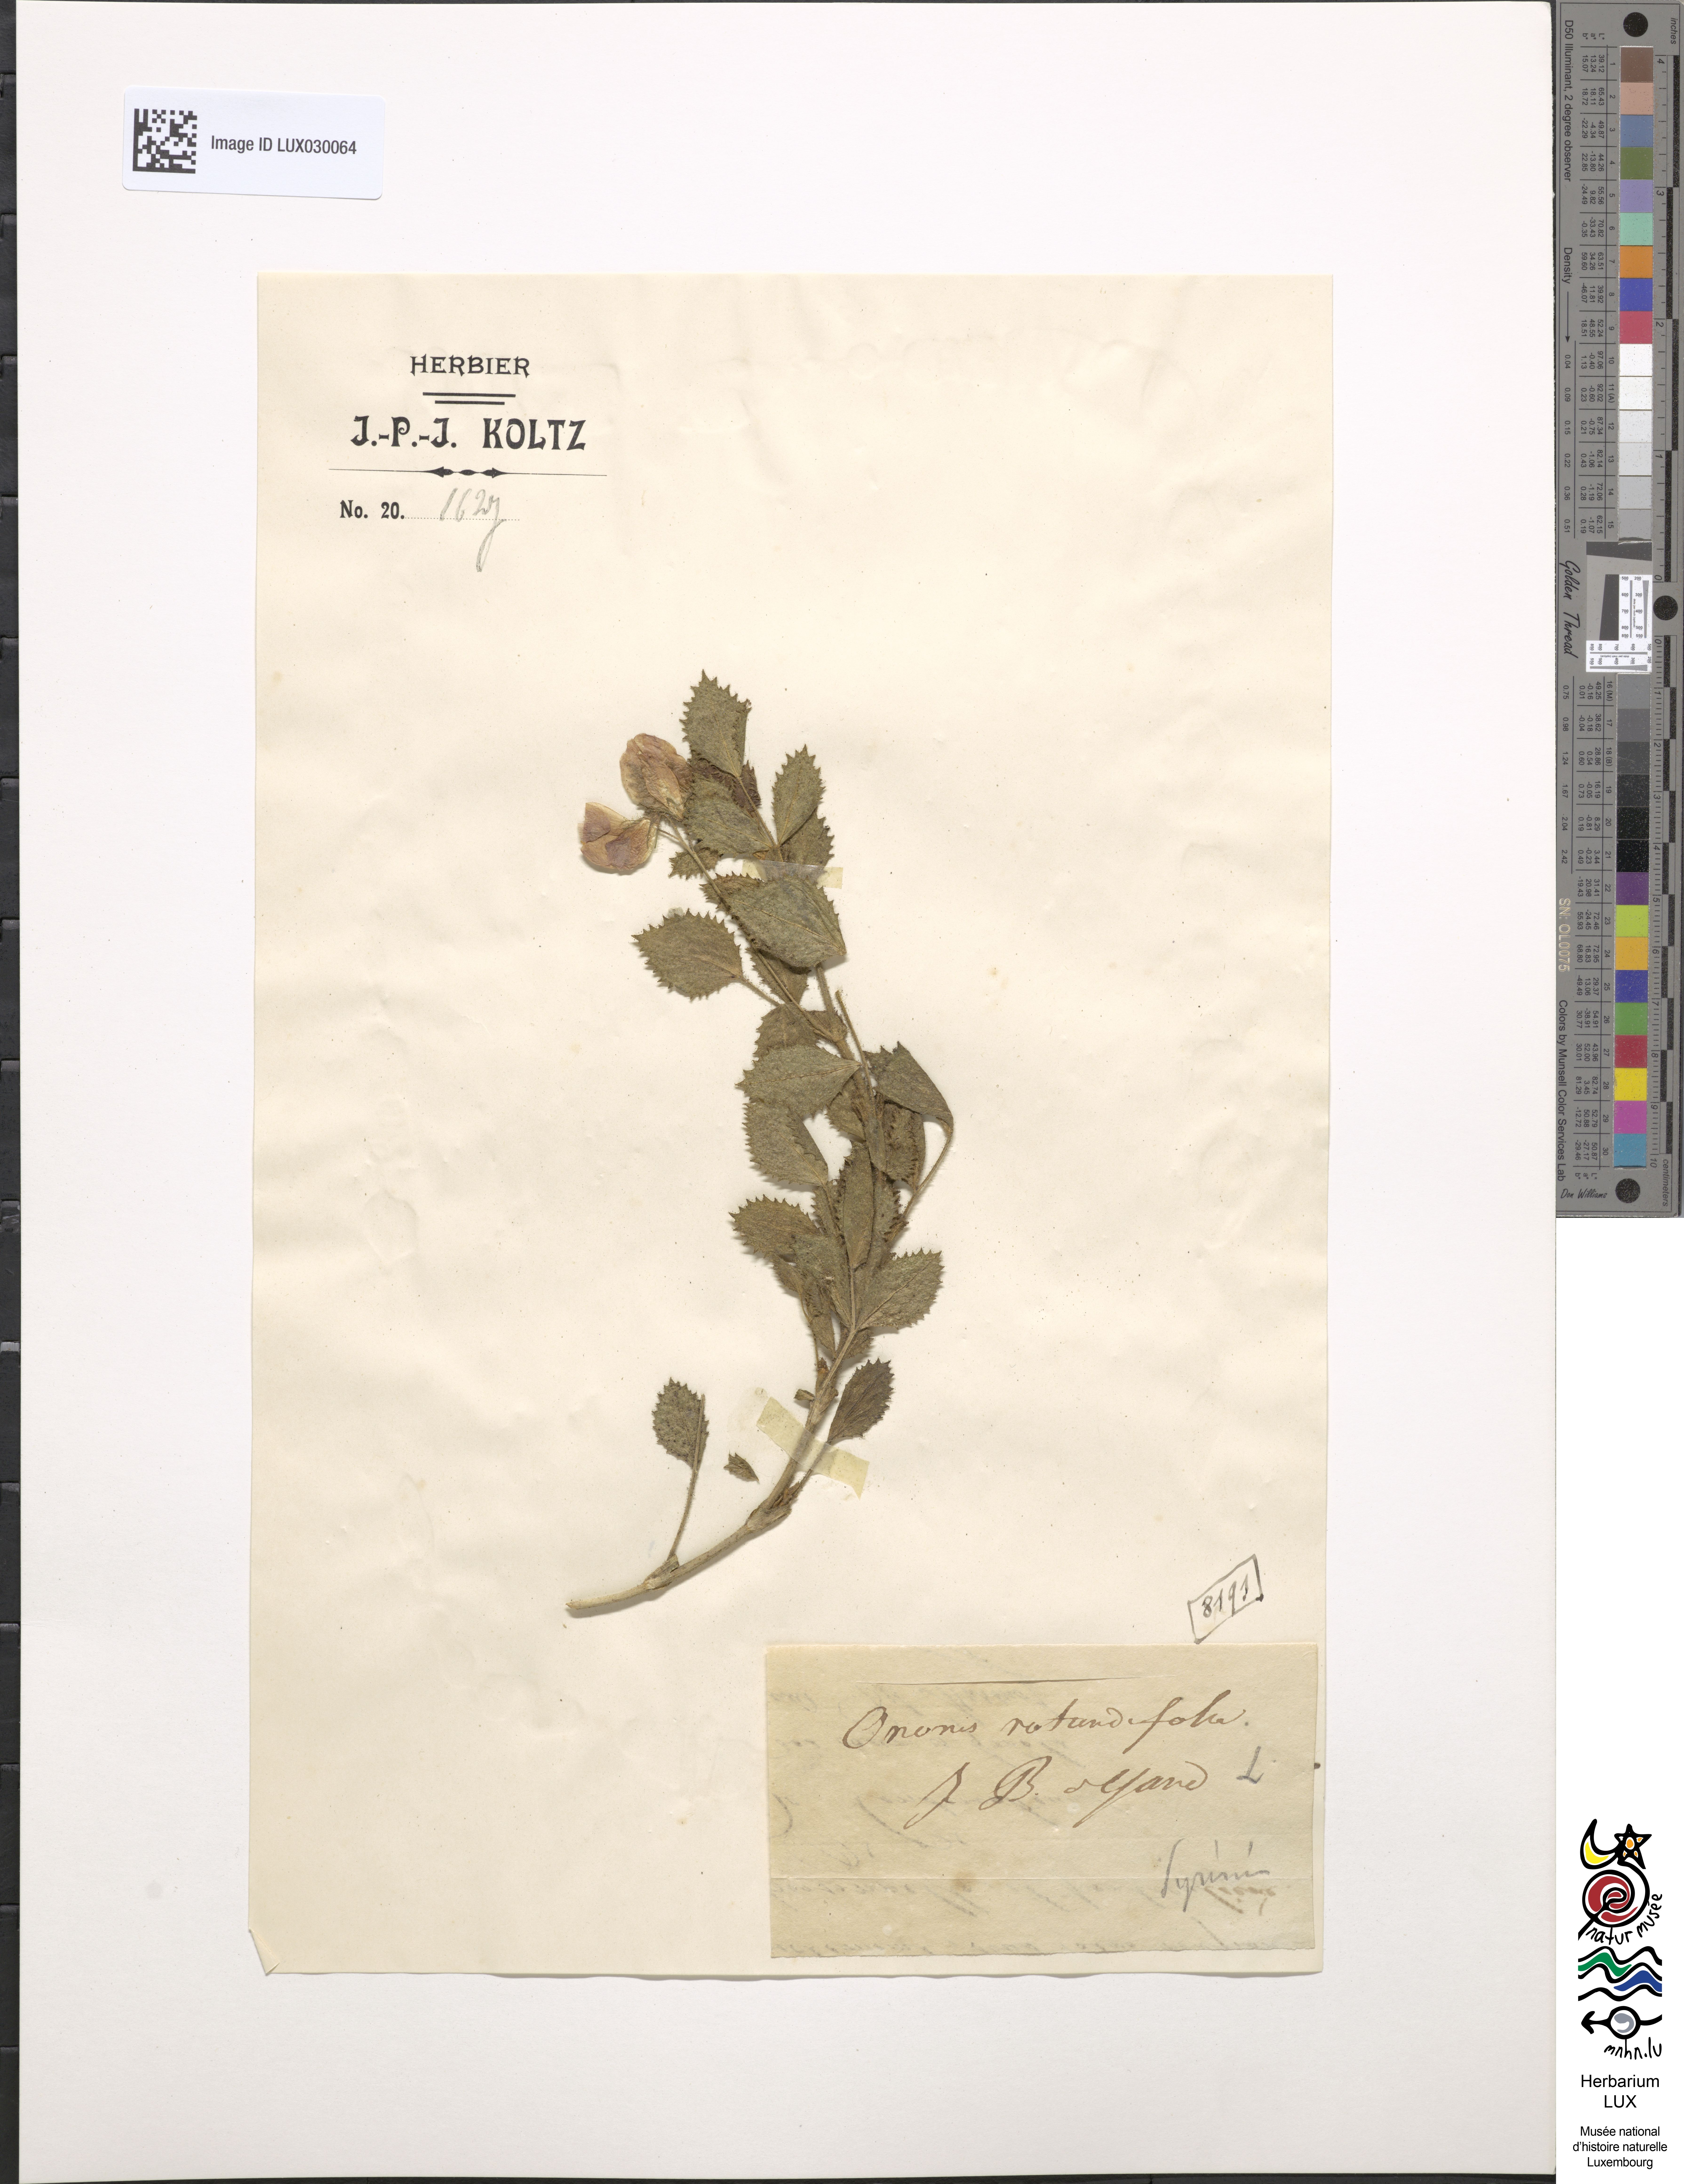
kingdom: Plantae
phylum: Tracheophyta
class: Magnoliopsida
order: Fabales
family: Fabaceae
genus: Ononis
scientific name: Ononis rotundifolia
